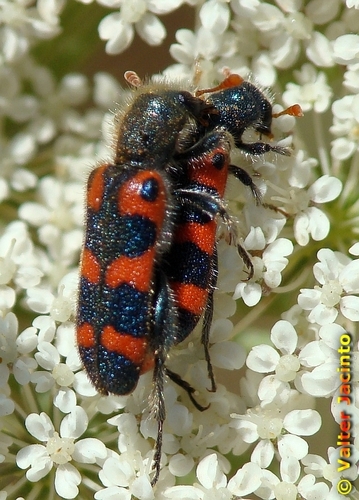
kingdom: Animalia
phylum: Arthropoda
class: Insecta
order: Coleoptera
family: Cleridae
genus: Trichodes
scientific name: Trichodes leucopsideus
